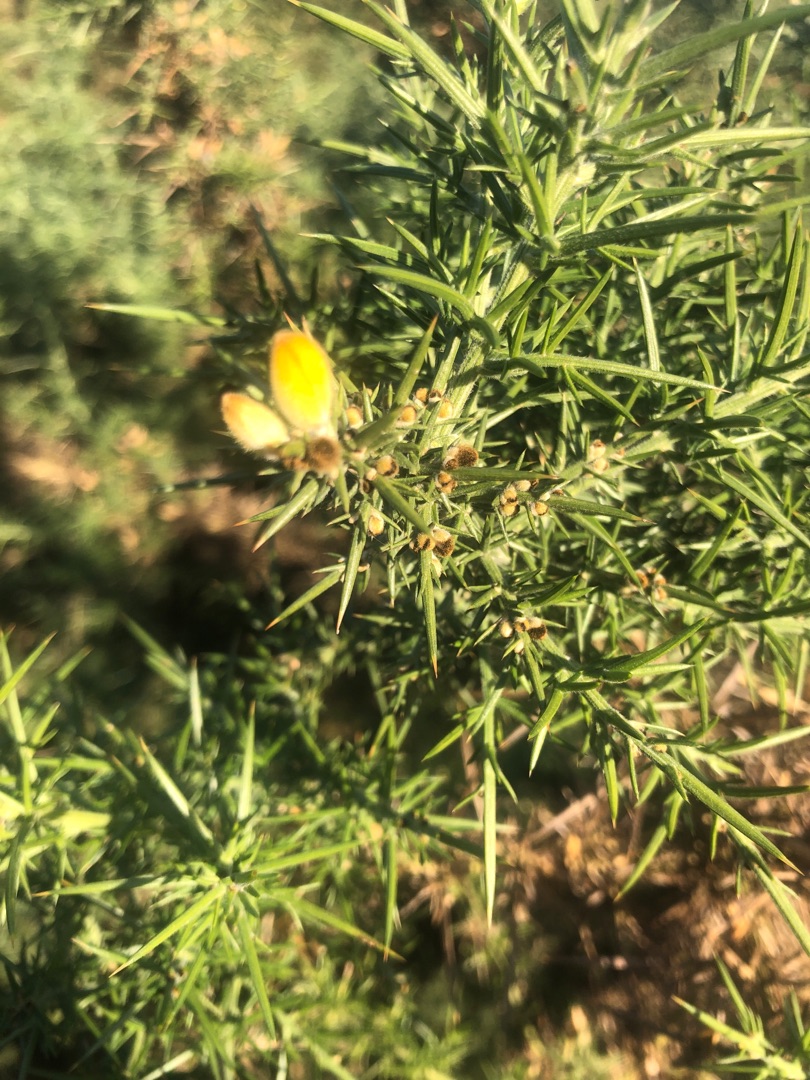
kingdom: Plantae
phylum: Tracheophyta
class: Magnoliopsida
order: Fabales
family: Fabaceae
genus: Ulex
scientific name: Ulex europaeus
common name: Tornblad
